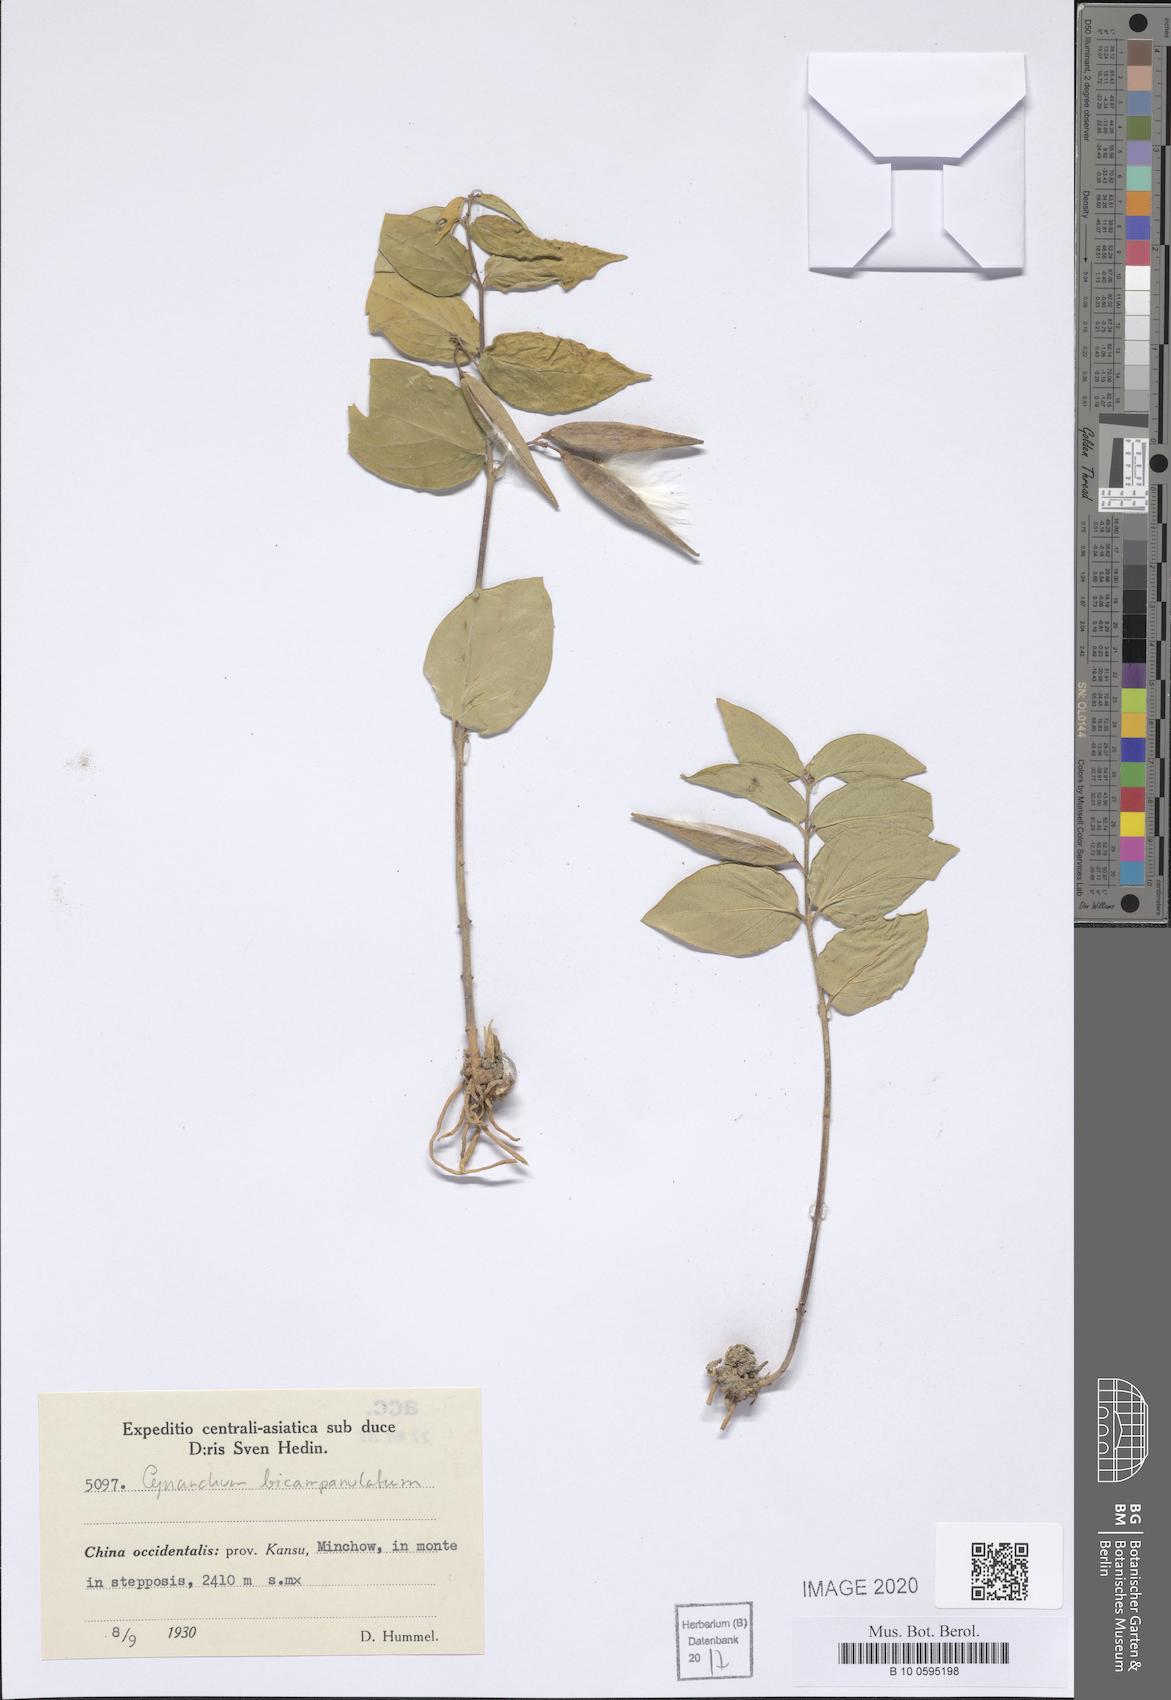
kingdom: Plantae
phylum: Tracheophyta
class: Magnoliopsida
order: Gentianales
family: Apocynaceae
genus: Cynanchum
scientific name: Cynanchum bicampanulatum
